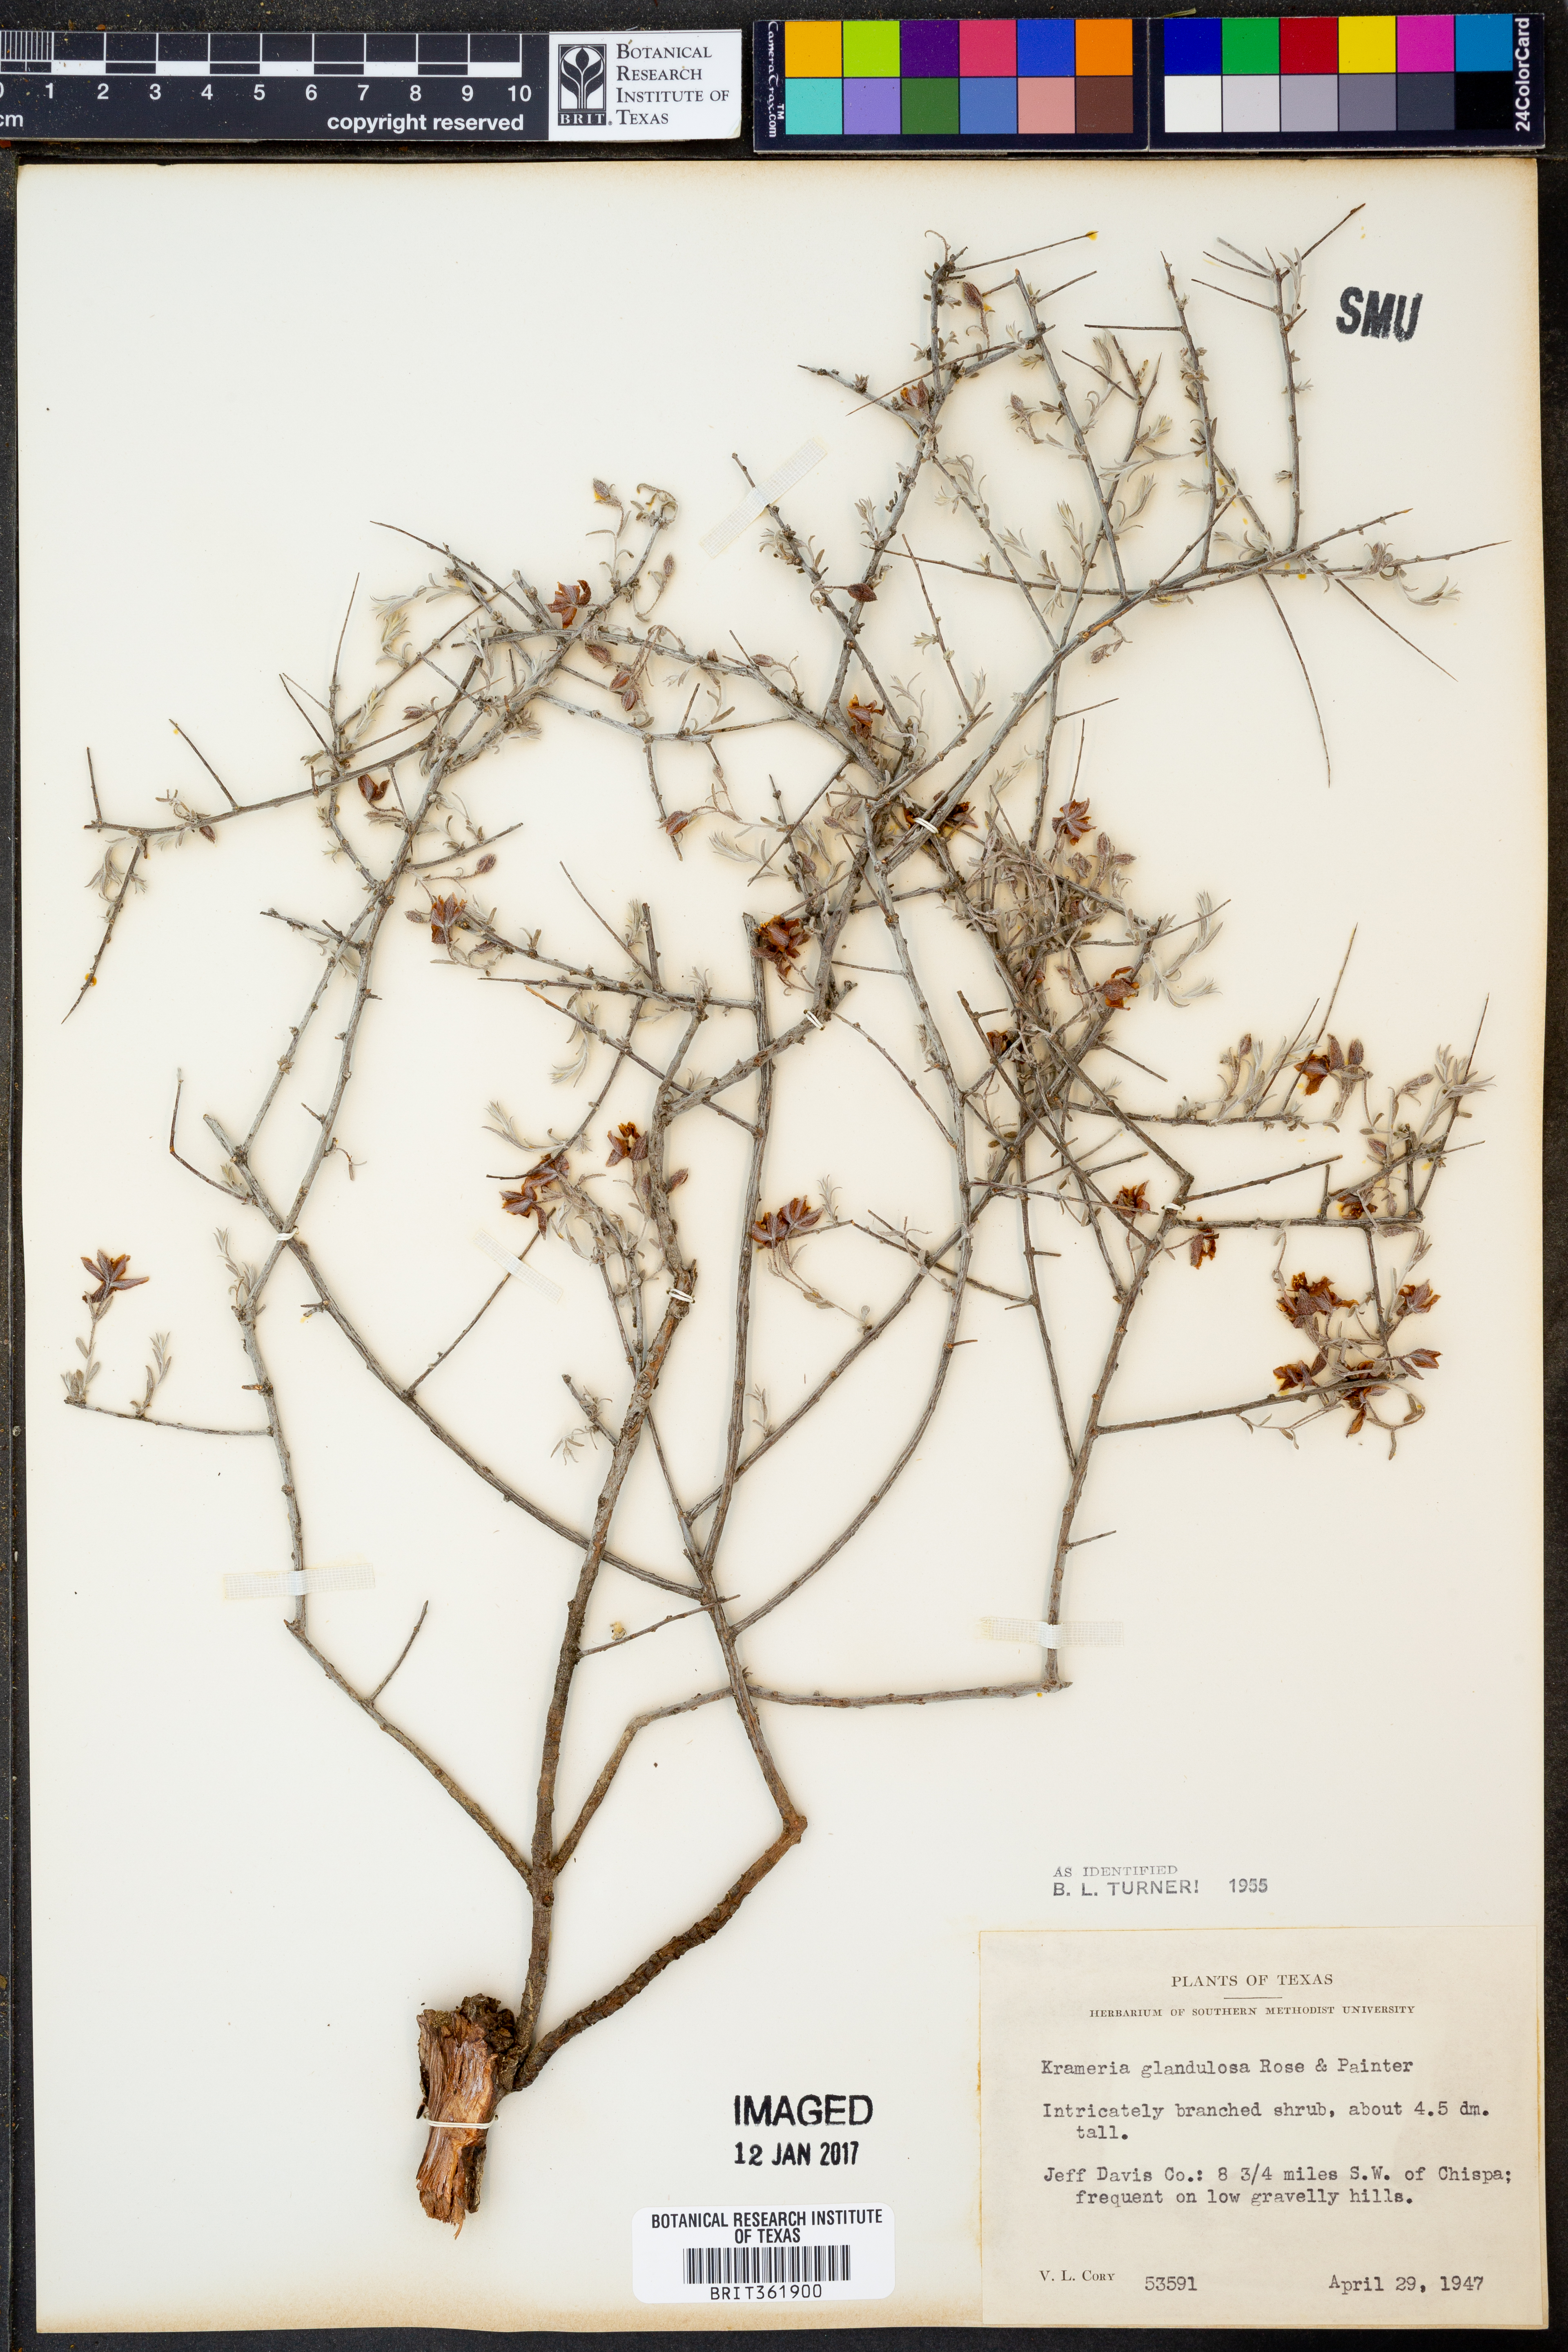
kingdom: Plantae
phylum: Tracheophyta
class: Magnoliopsida
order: Zygophyllales
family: Krameriaceae
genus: Krameria
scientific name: Krameria erecta
